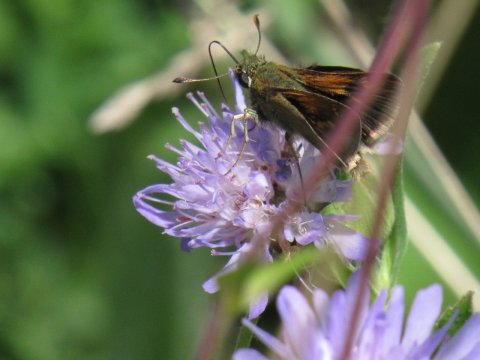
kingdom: Animalia
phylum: Arthropoda
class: Insecta
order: Lepidoptera
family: Hesperiidae
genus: Polites
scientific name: Polites themistocles
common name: Tawny-edged Skipper
